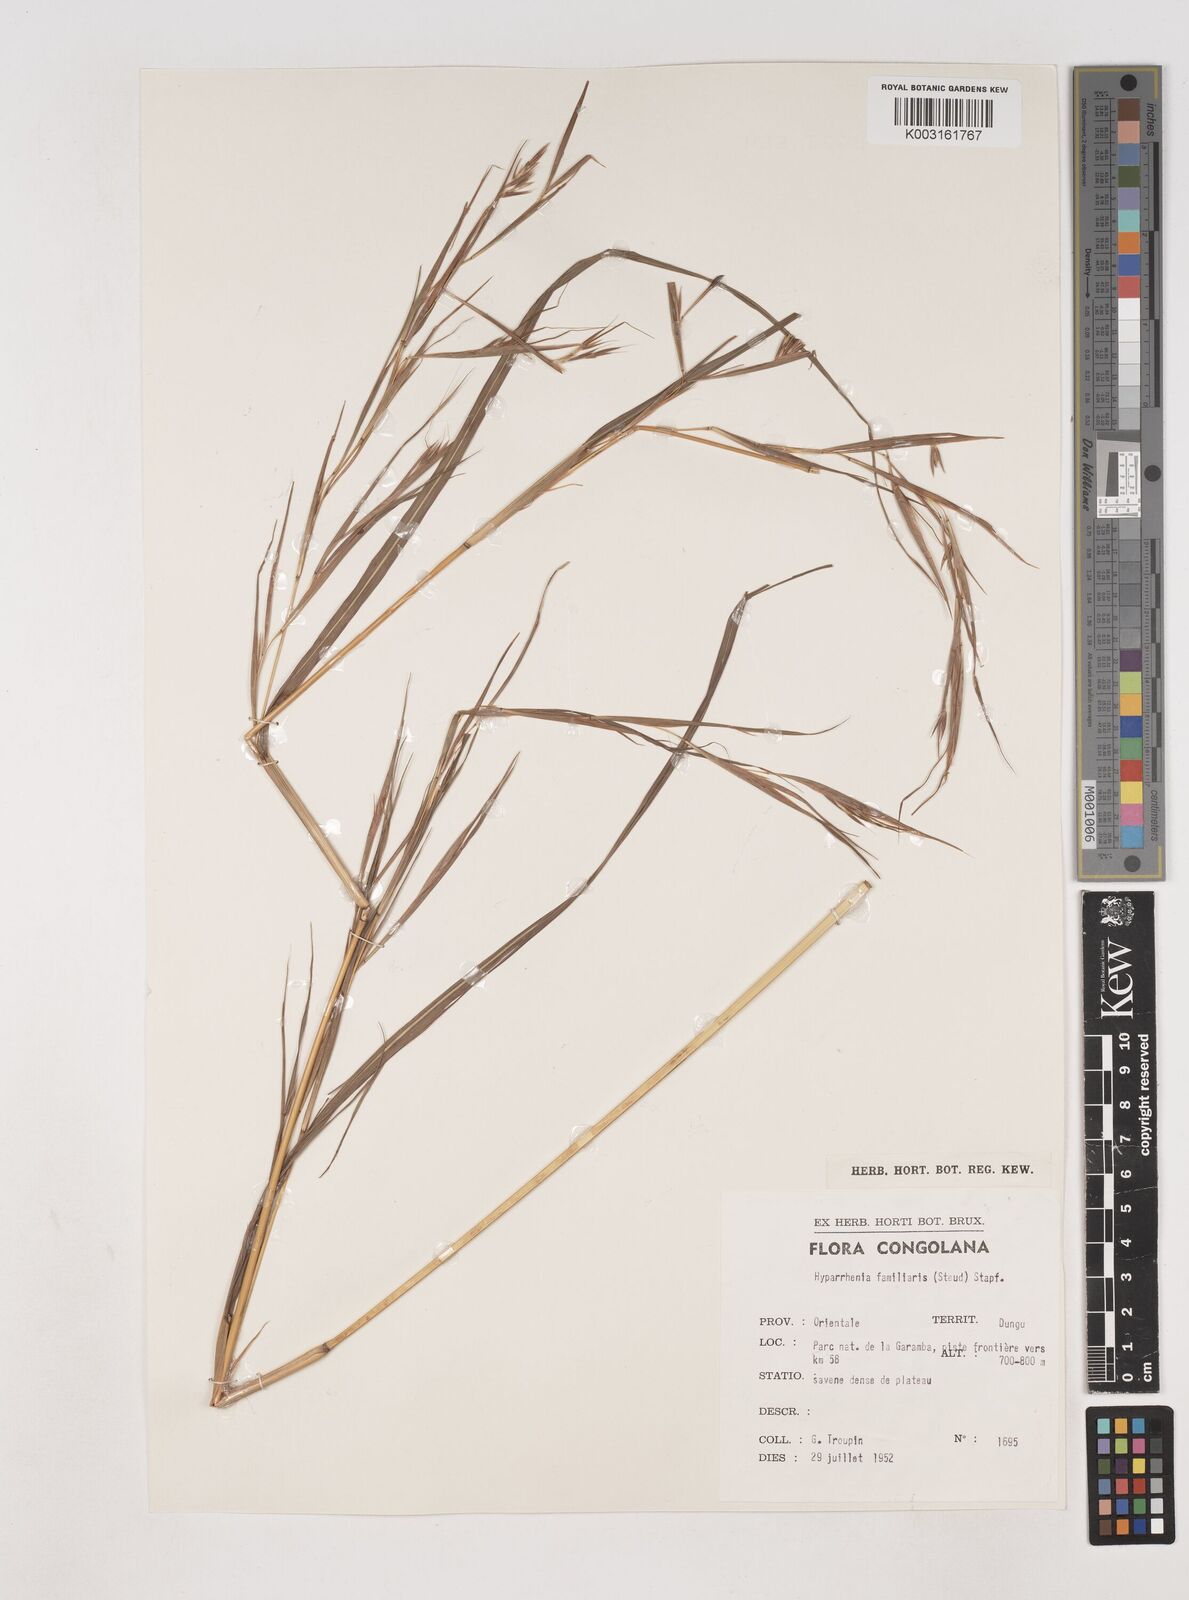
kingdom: Plantae
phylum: Tracheophyta
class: Liliopsida
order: Poales
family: Poaceae
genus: Hyparrhenia
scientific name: Hyparrhenia familiaris
